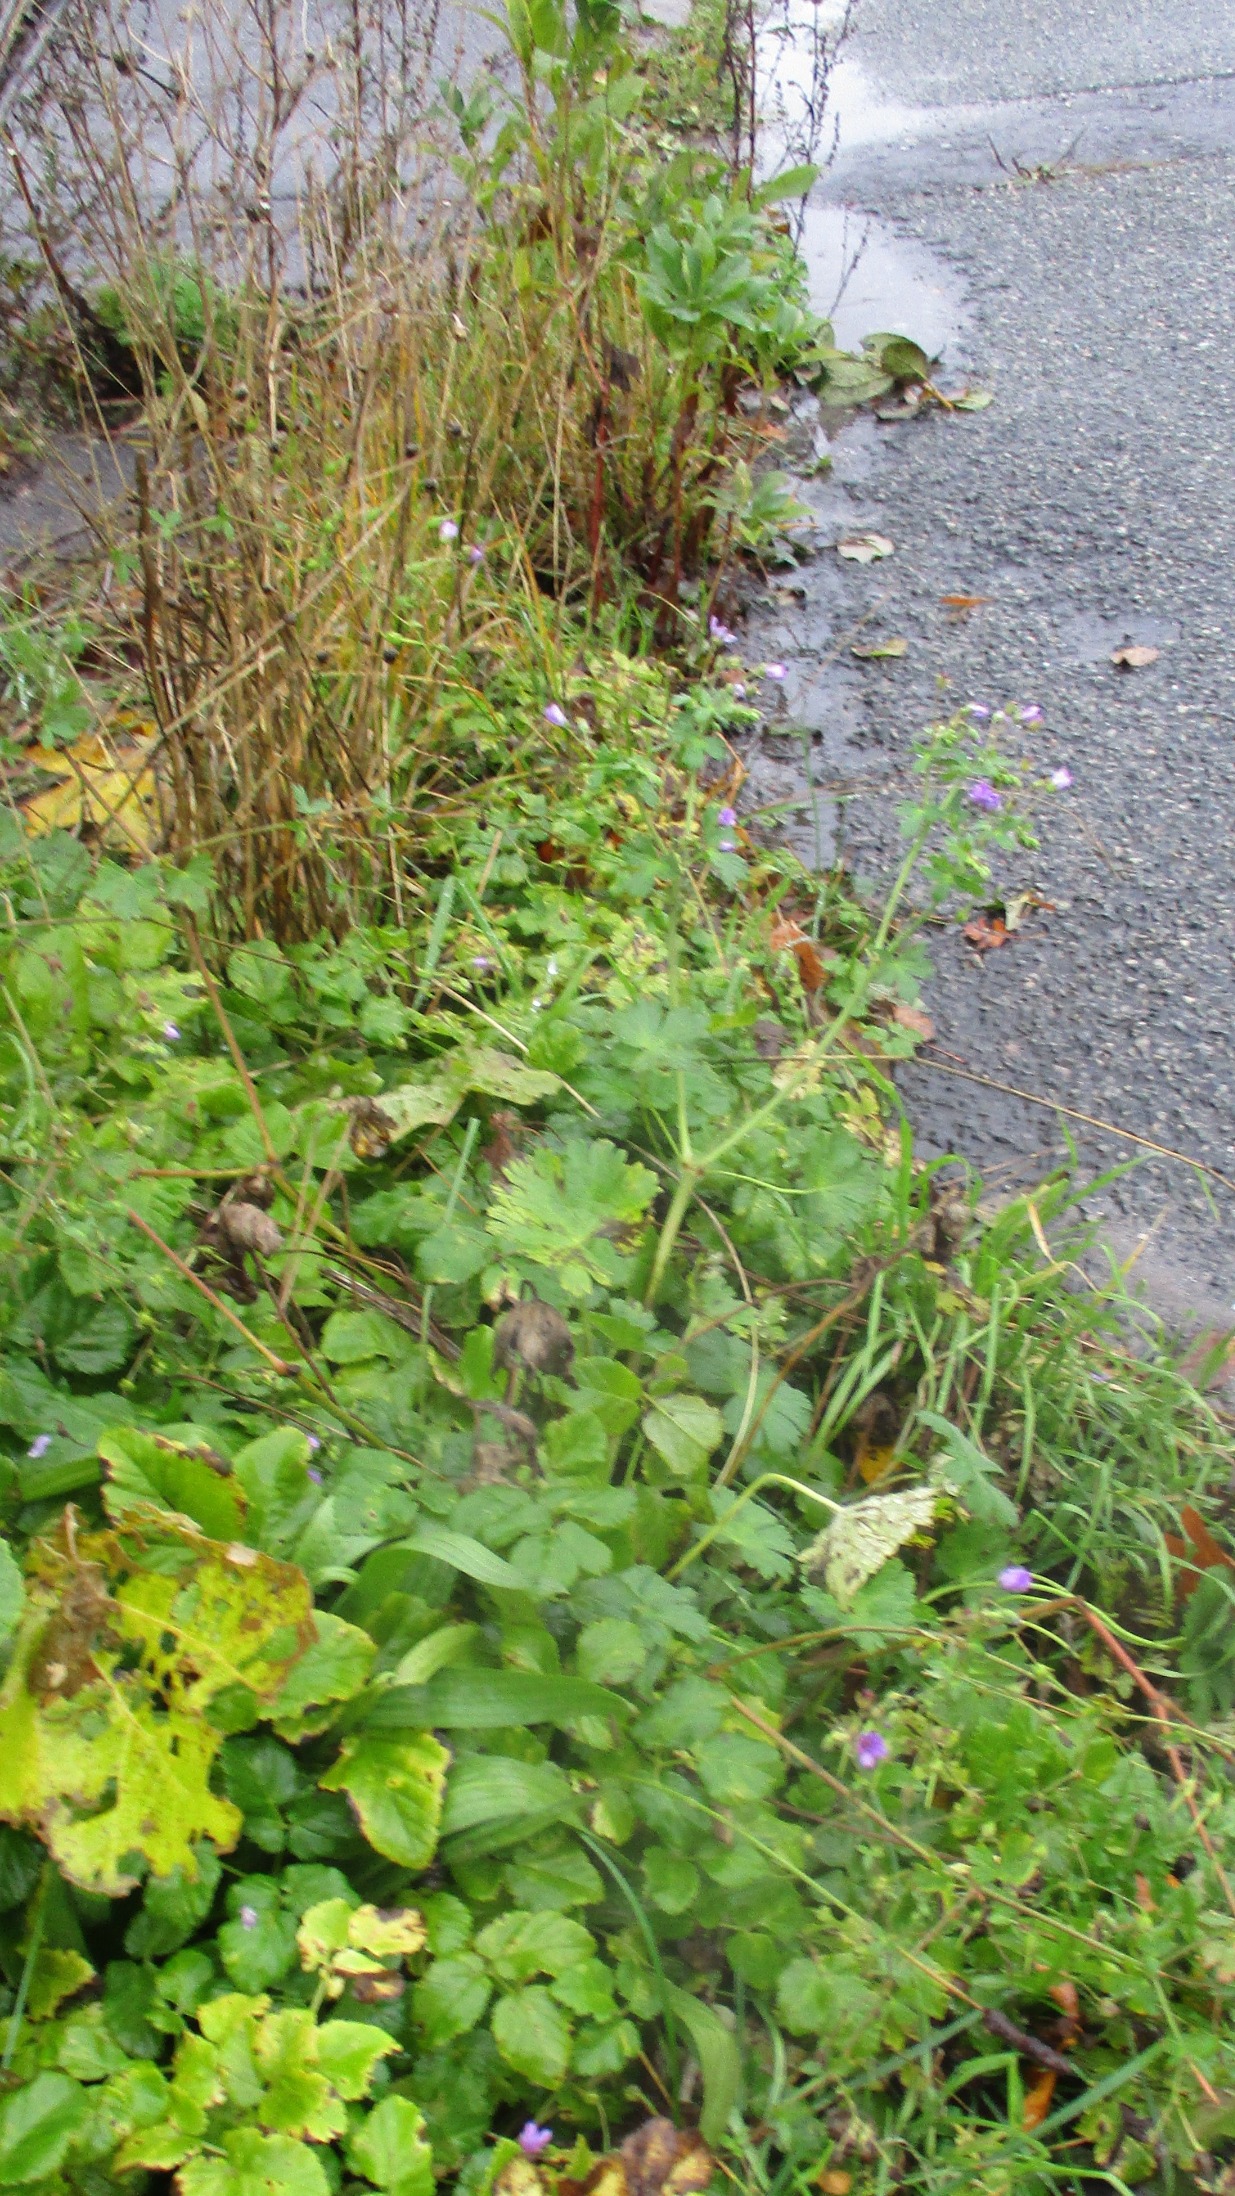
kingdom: Plantae
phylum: Tracheophyta
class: Magnoliopsida
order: Geraniales
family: Geraniaceae
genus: Geranium
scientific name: Geranium pyrenaicum
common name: Pyrenæisk storkenæb
